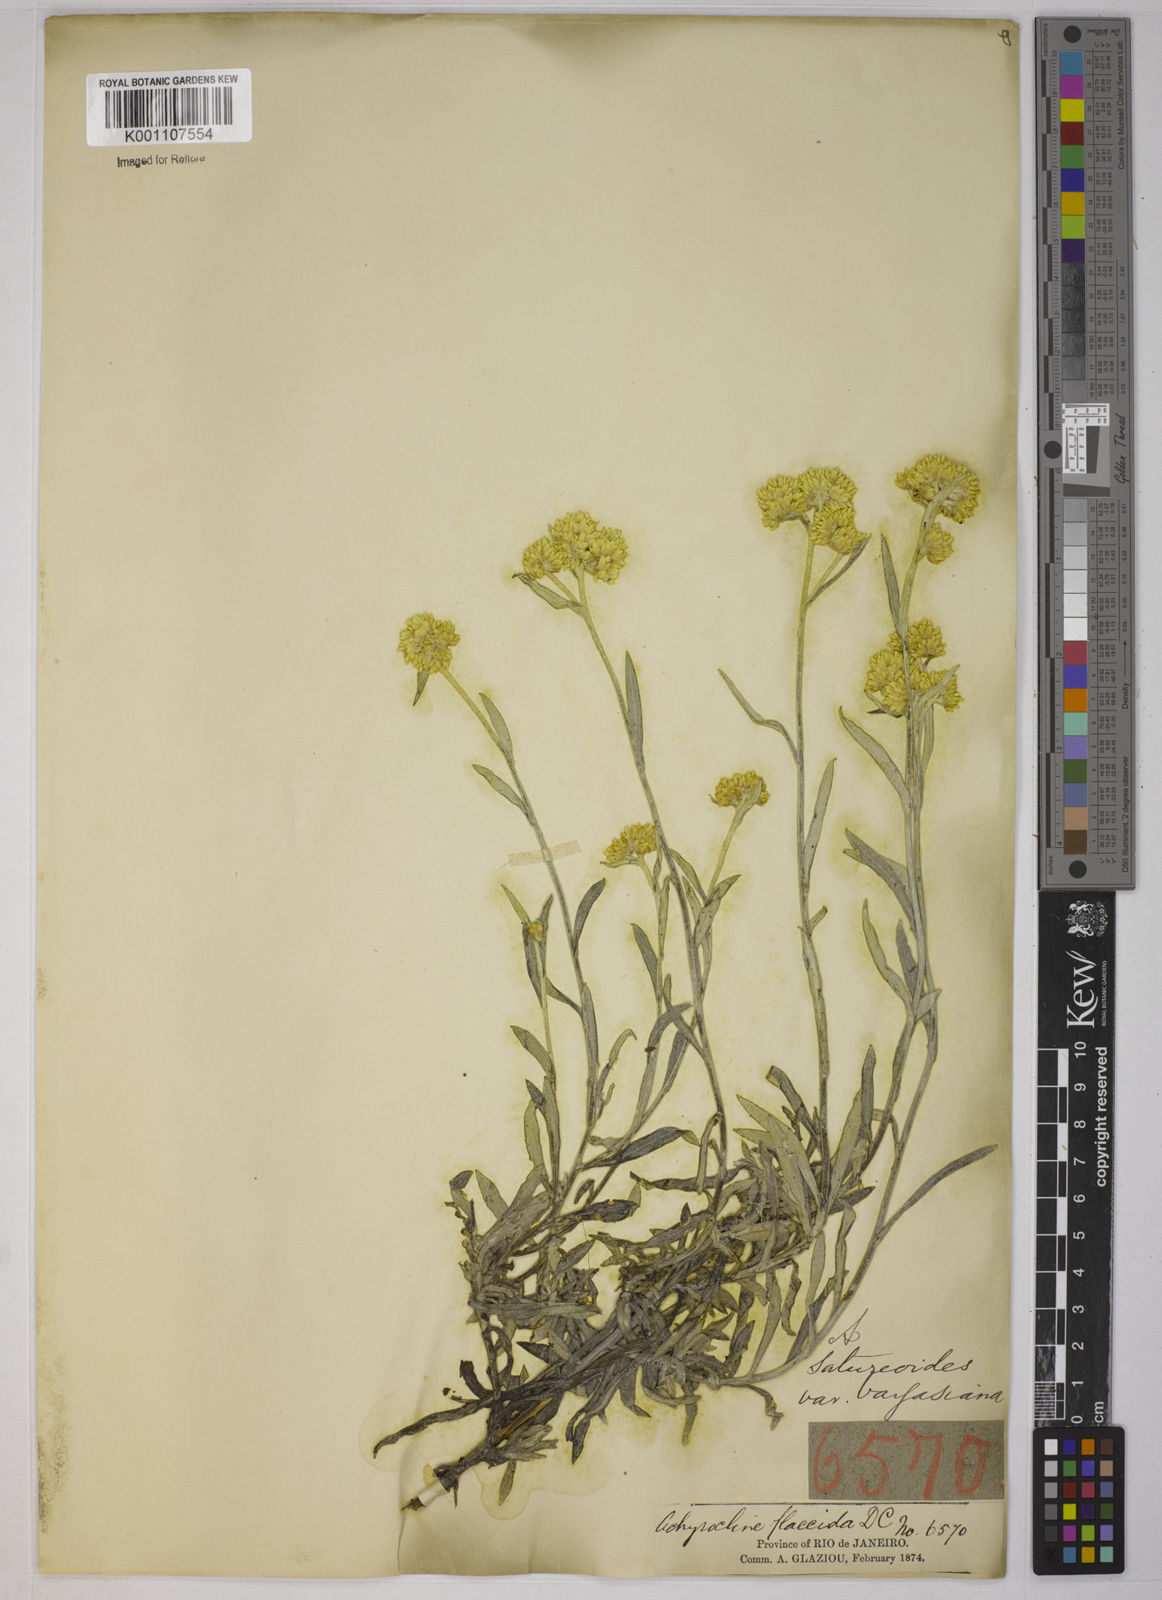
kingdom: Plantae
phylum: Tracheophyta
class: Magnoliopsida
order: Asterales
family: Asteraceae
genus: Achyrocline
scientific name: Achyrocline vargasiana
